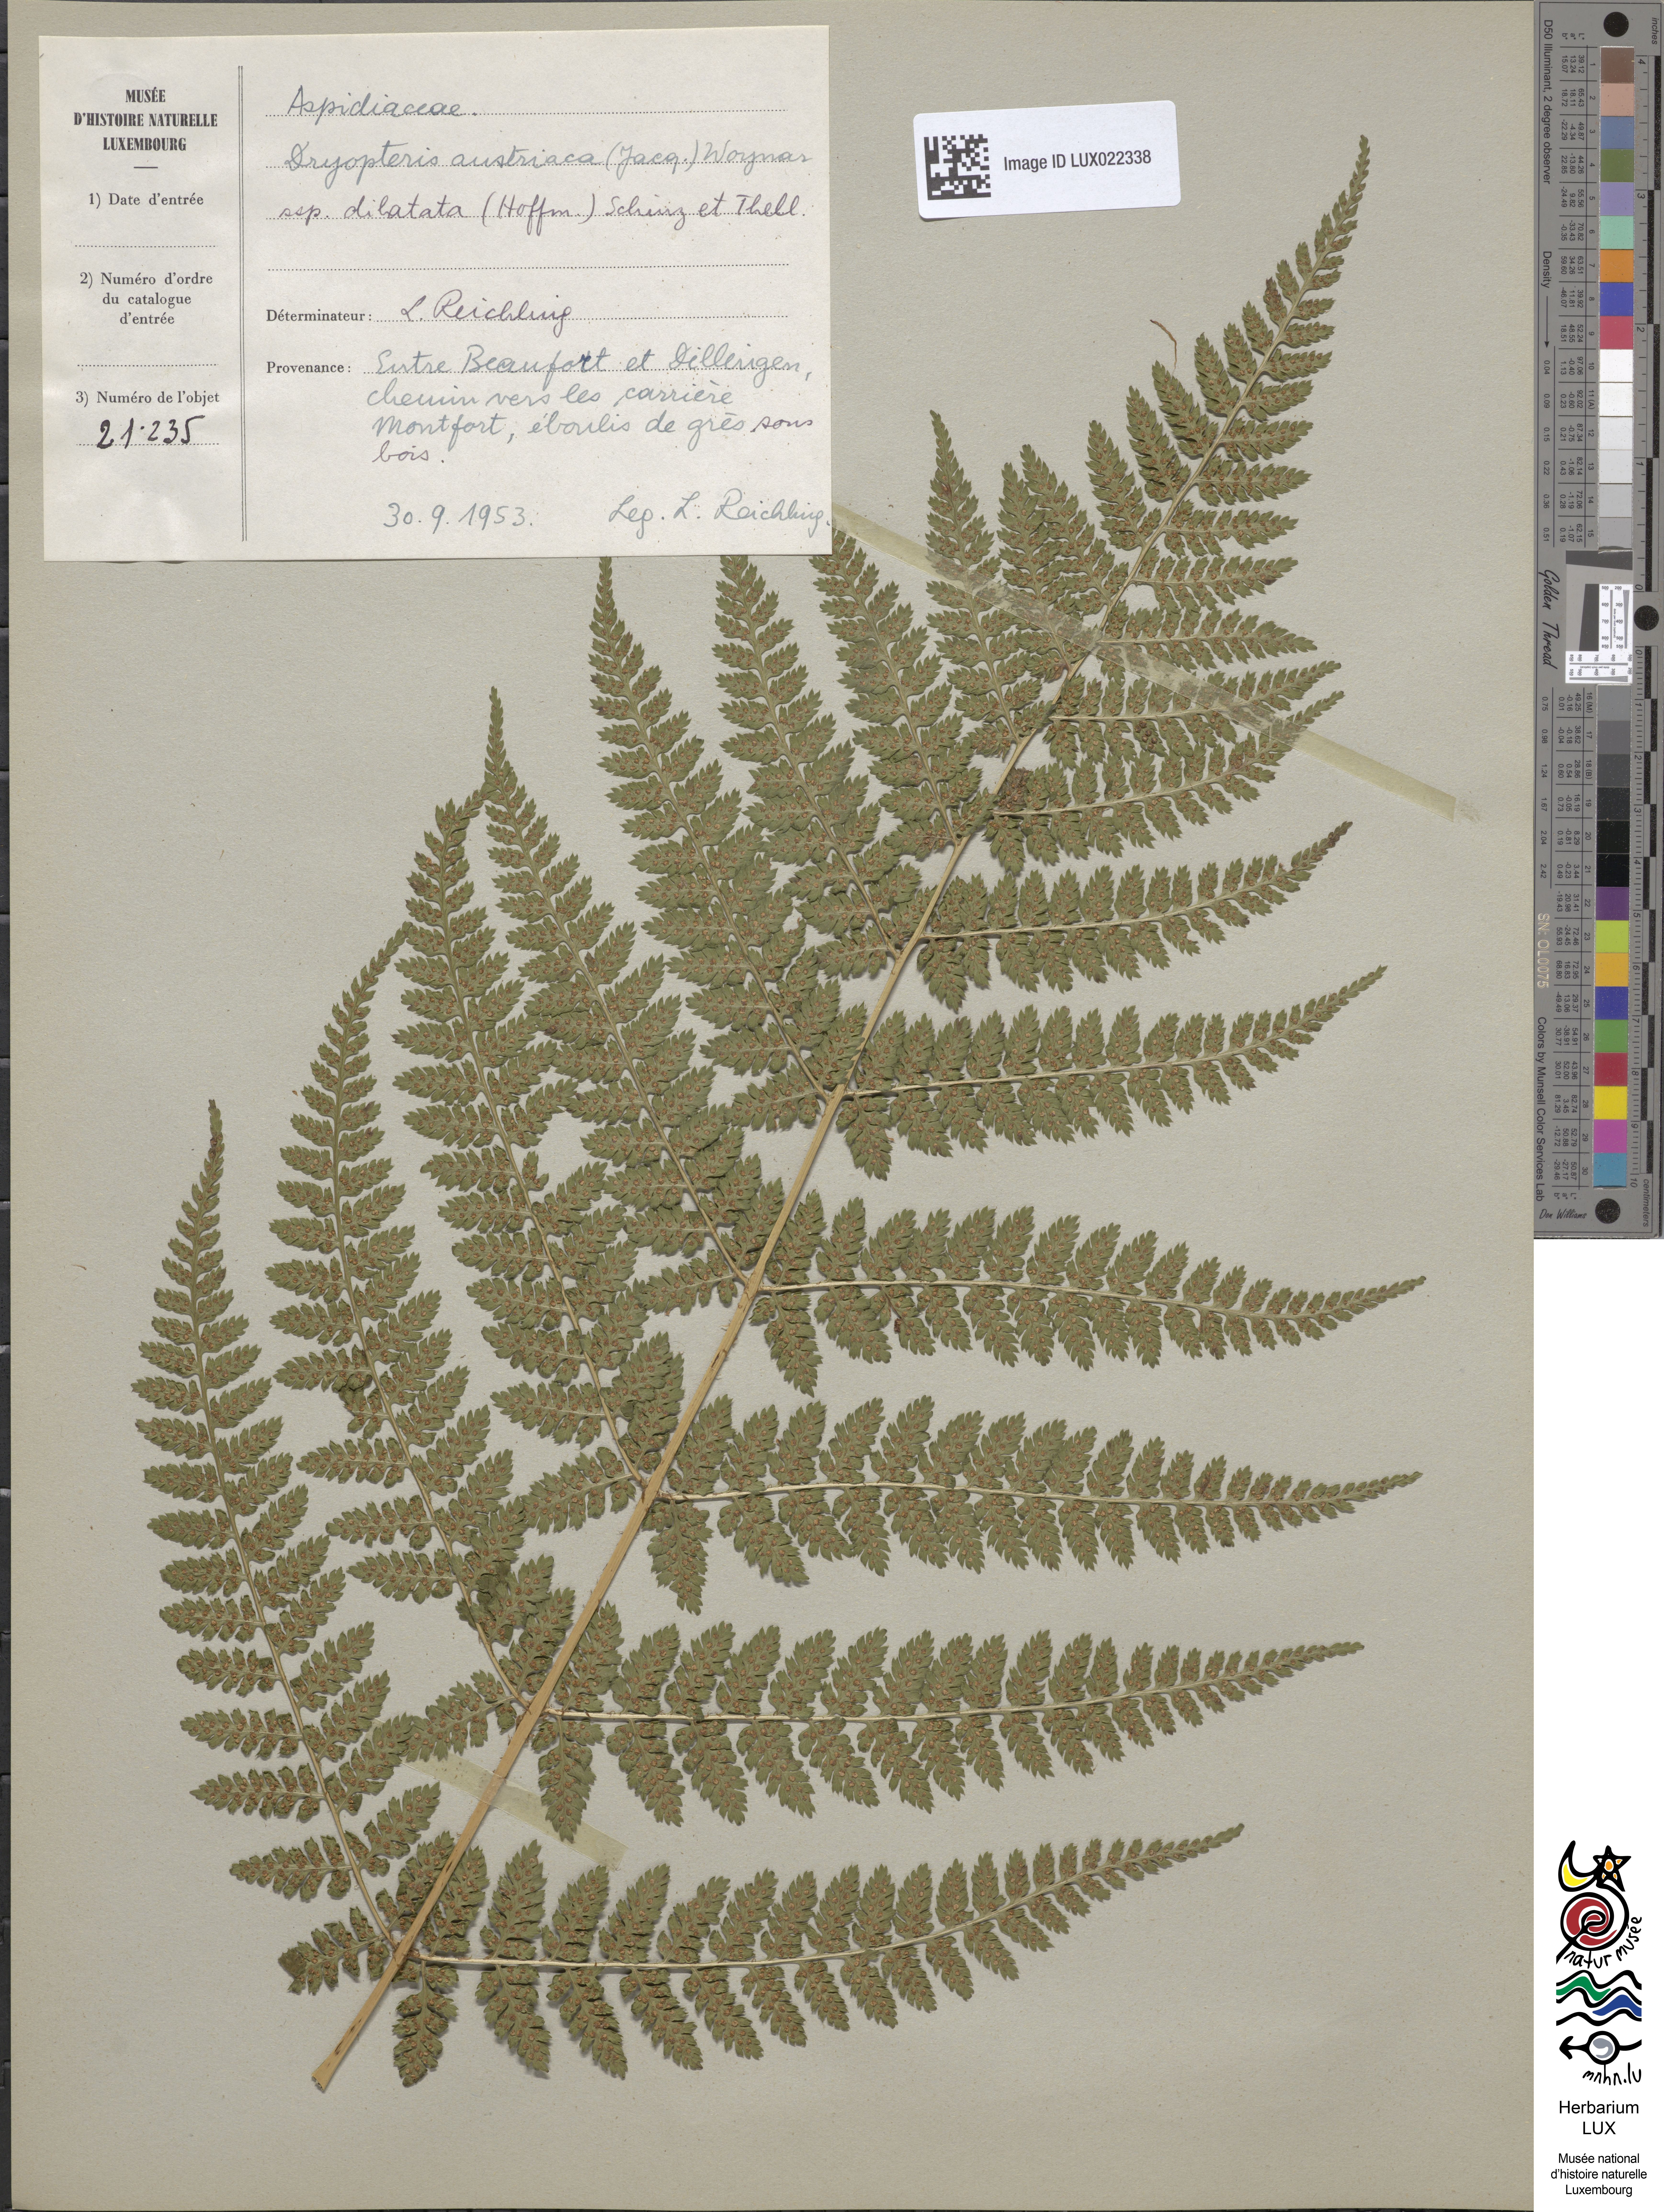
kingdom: Plantae
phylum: Tracheophyta
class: Polypodiopsida
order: Polypodiales
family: Dryopteridaceae
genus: Dryopteris
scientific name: Dryopteris dilatata
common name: Broad buckler-fern
